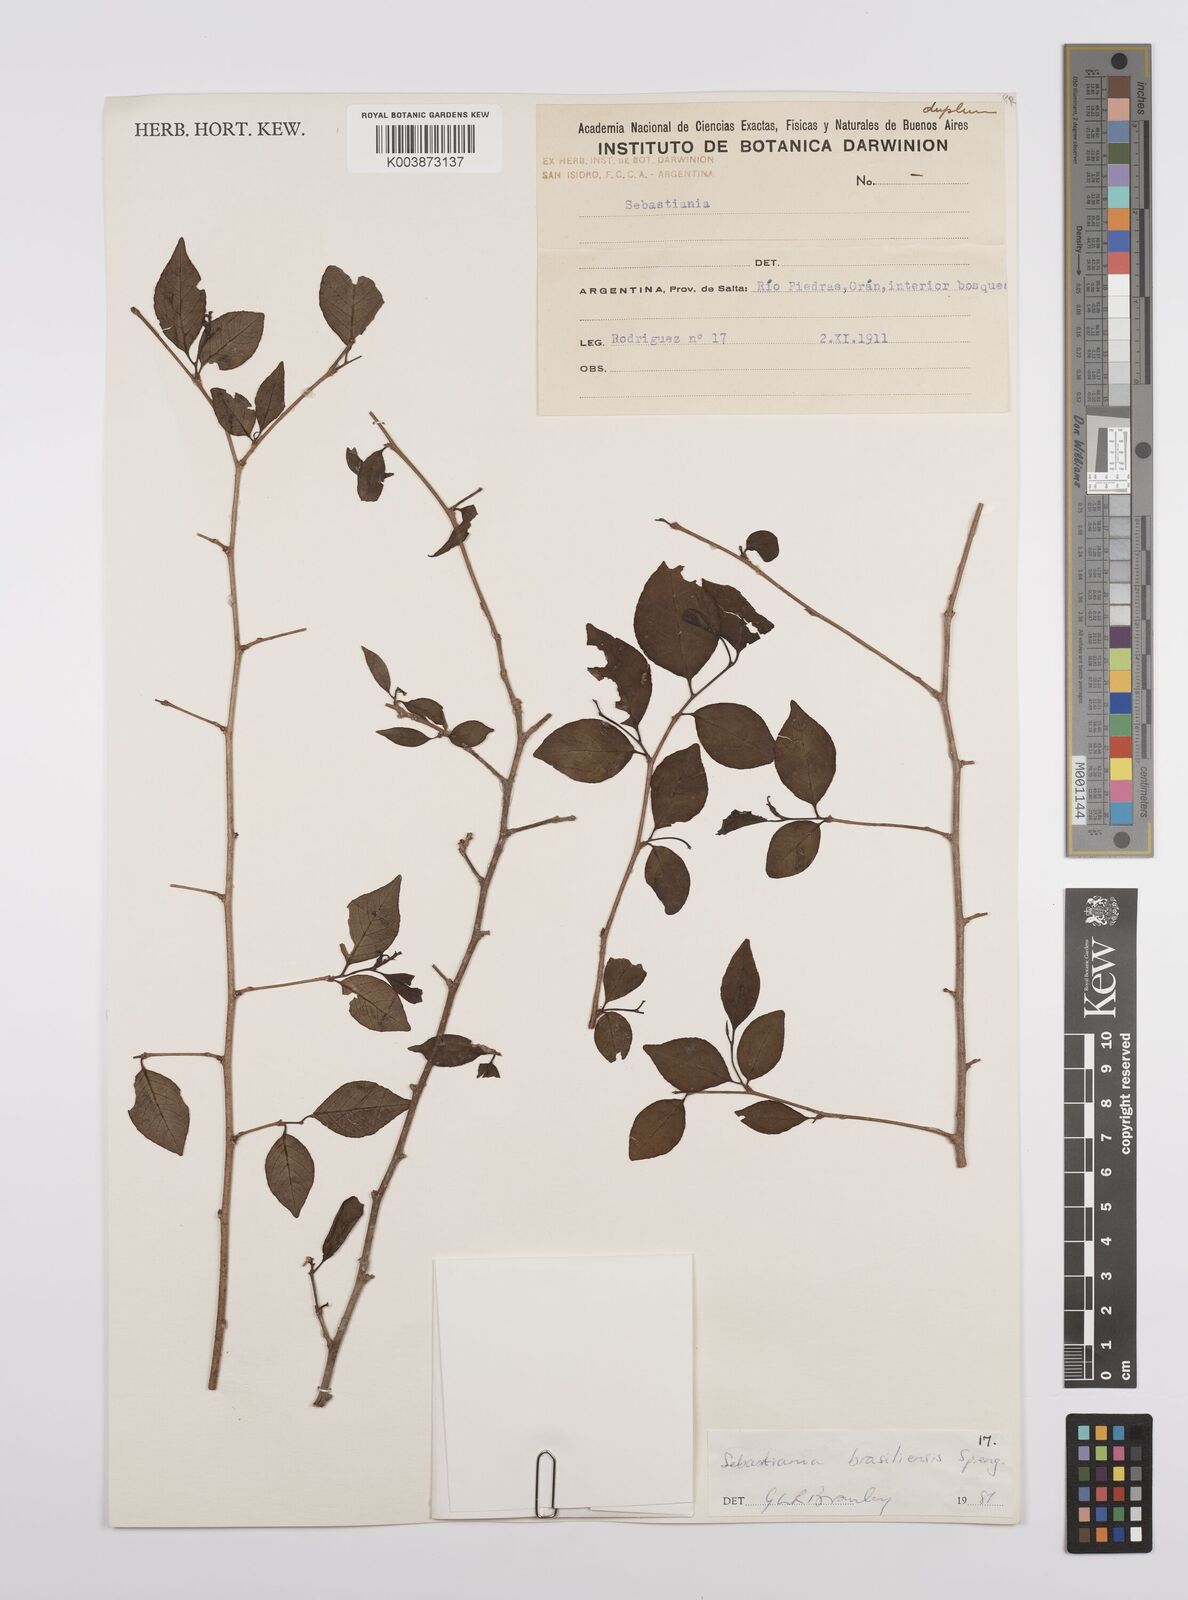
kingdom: Plantae
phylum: Tracheophyta
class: Magnoliopsida
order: Malpighiales
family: Euphorbiaceae
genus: Sebastiania
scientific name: Sebastiania brasiliensis
